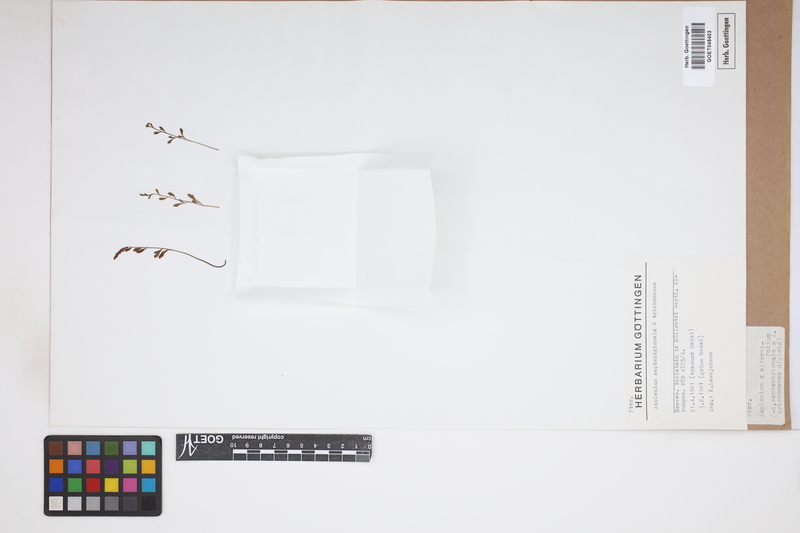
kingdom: Plantae
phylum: Tracheophyta
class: Polypodiopsida
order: Polypodiales
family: Aspleniaceae
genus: Asplenium
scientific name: Asplenium alternifolium
